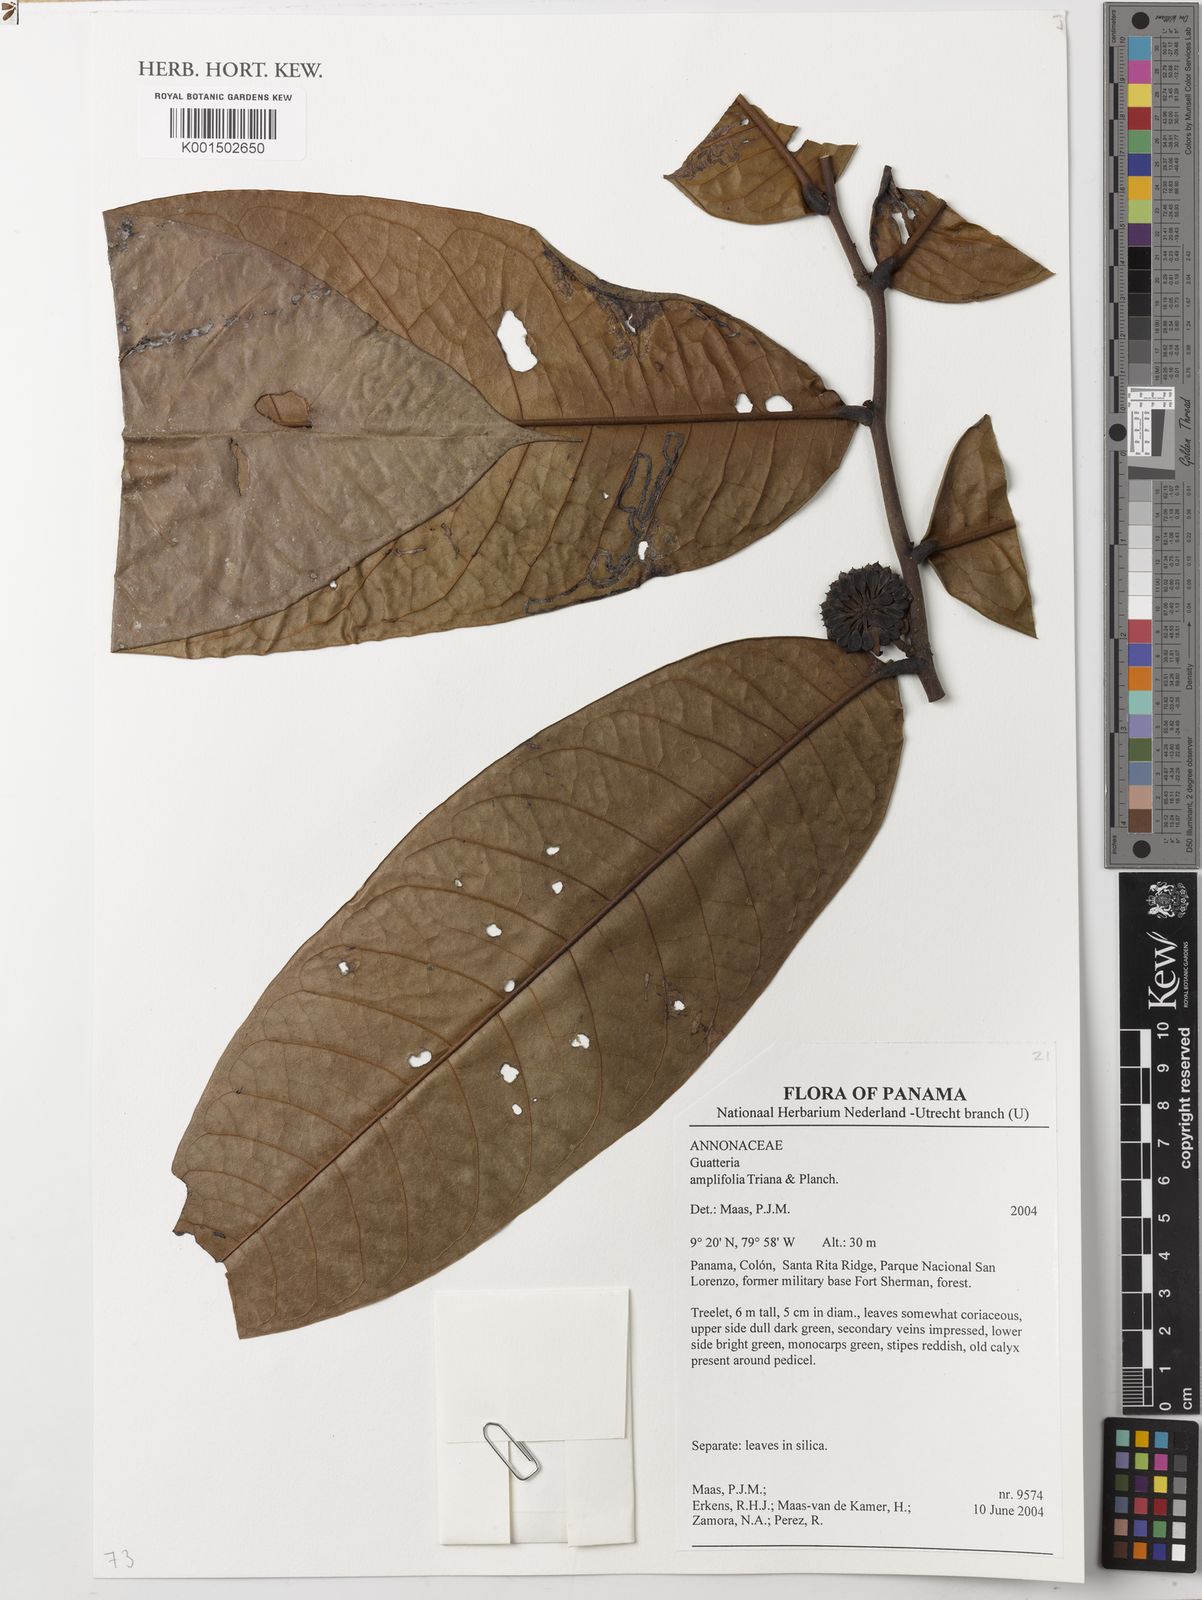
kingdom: Plantae
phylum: Tracheophyta
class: Magnoliopsida
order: Magnoliales
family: Annonaceae
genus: Guatteria
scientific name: Guatteria amplifolia
